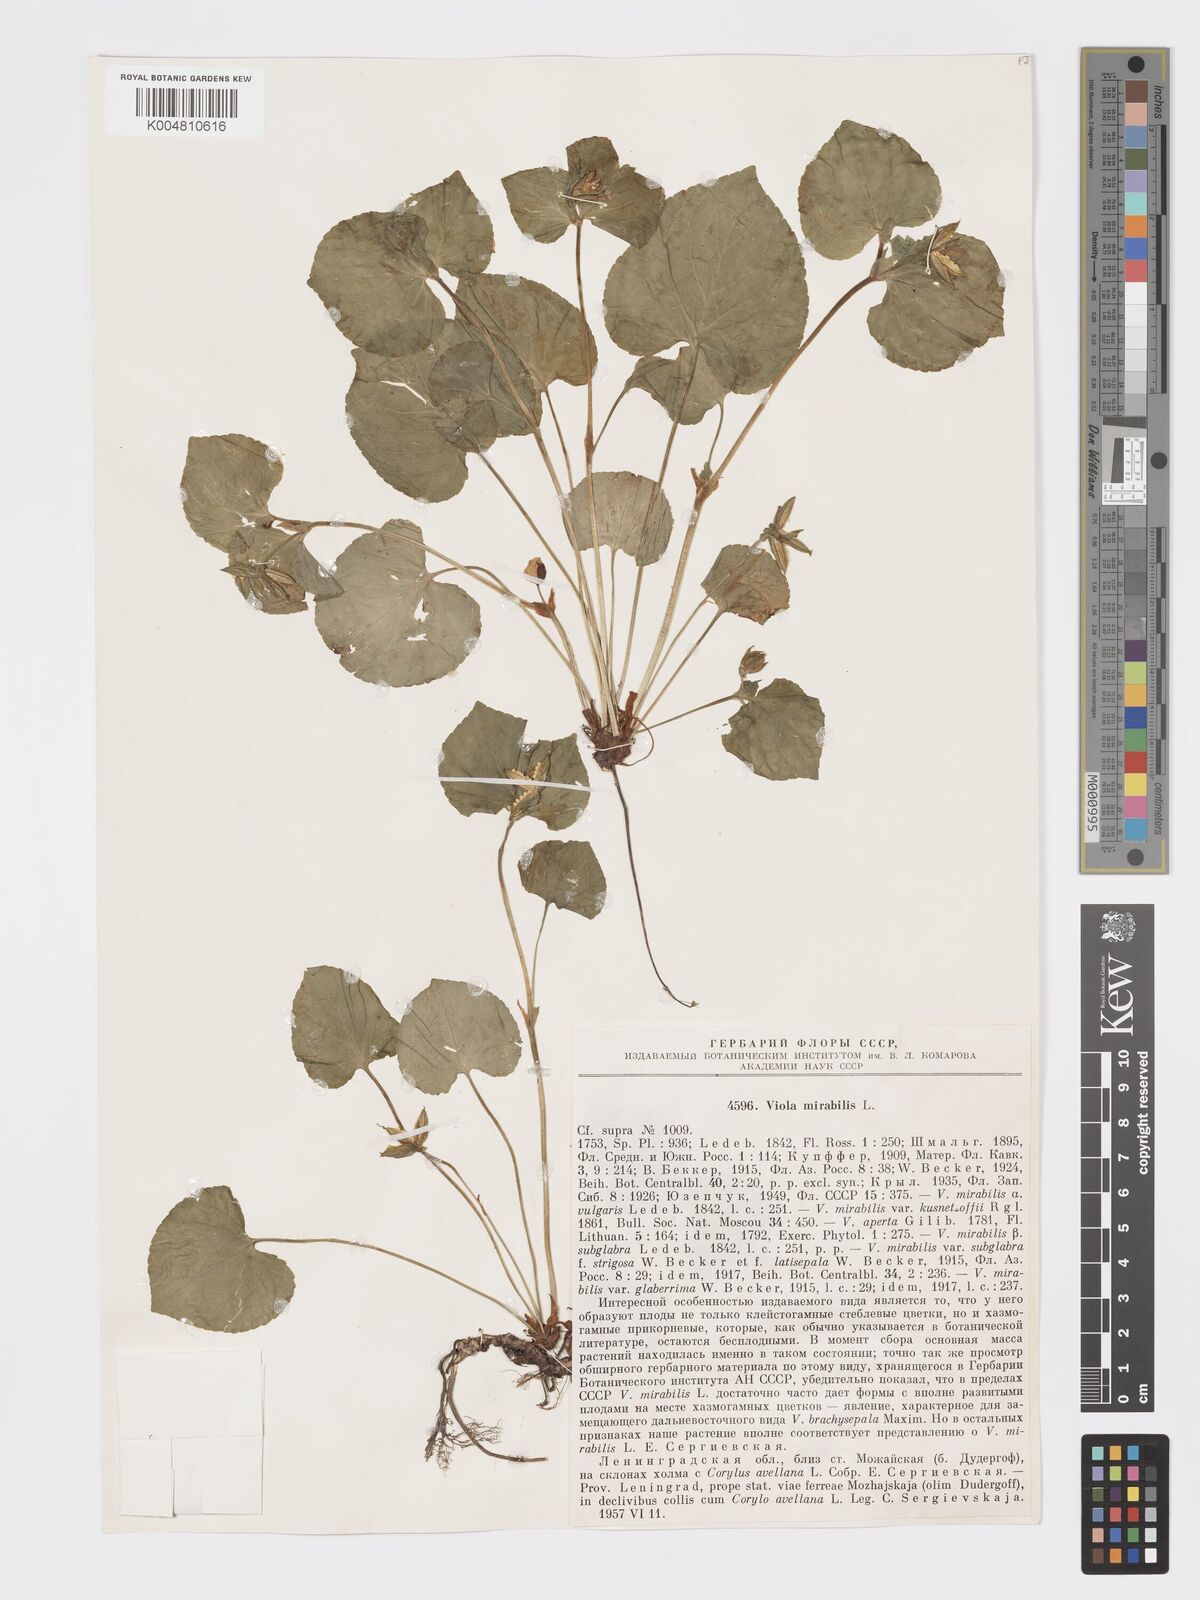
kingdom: Plantae
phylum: Tracheophyta
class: Magnoliopsida
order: Malpighiales
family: Violaceae
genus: Viola
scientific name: Viola mirabilis
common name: Wonder violet
